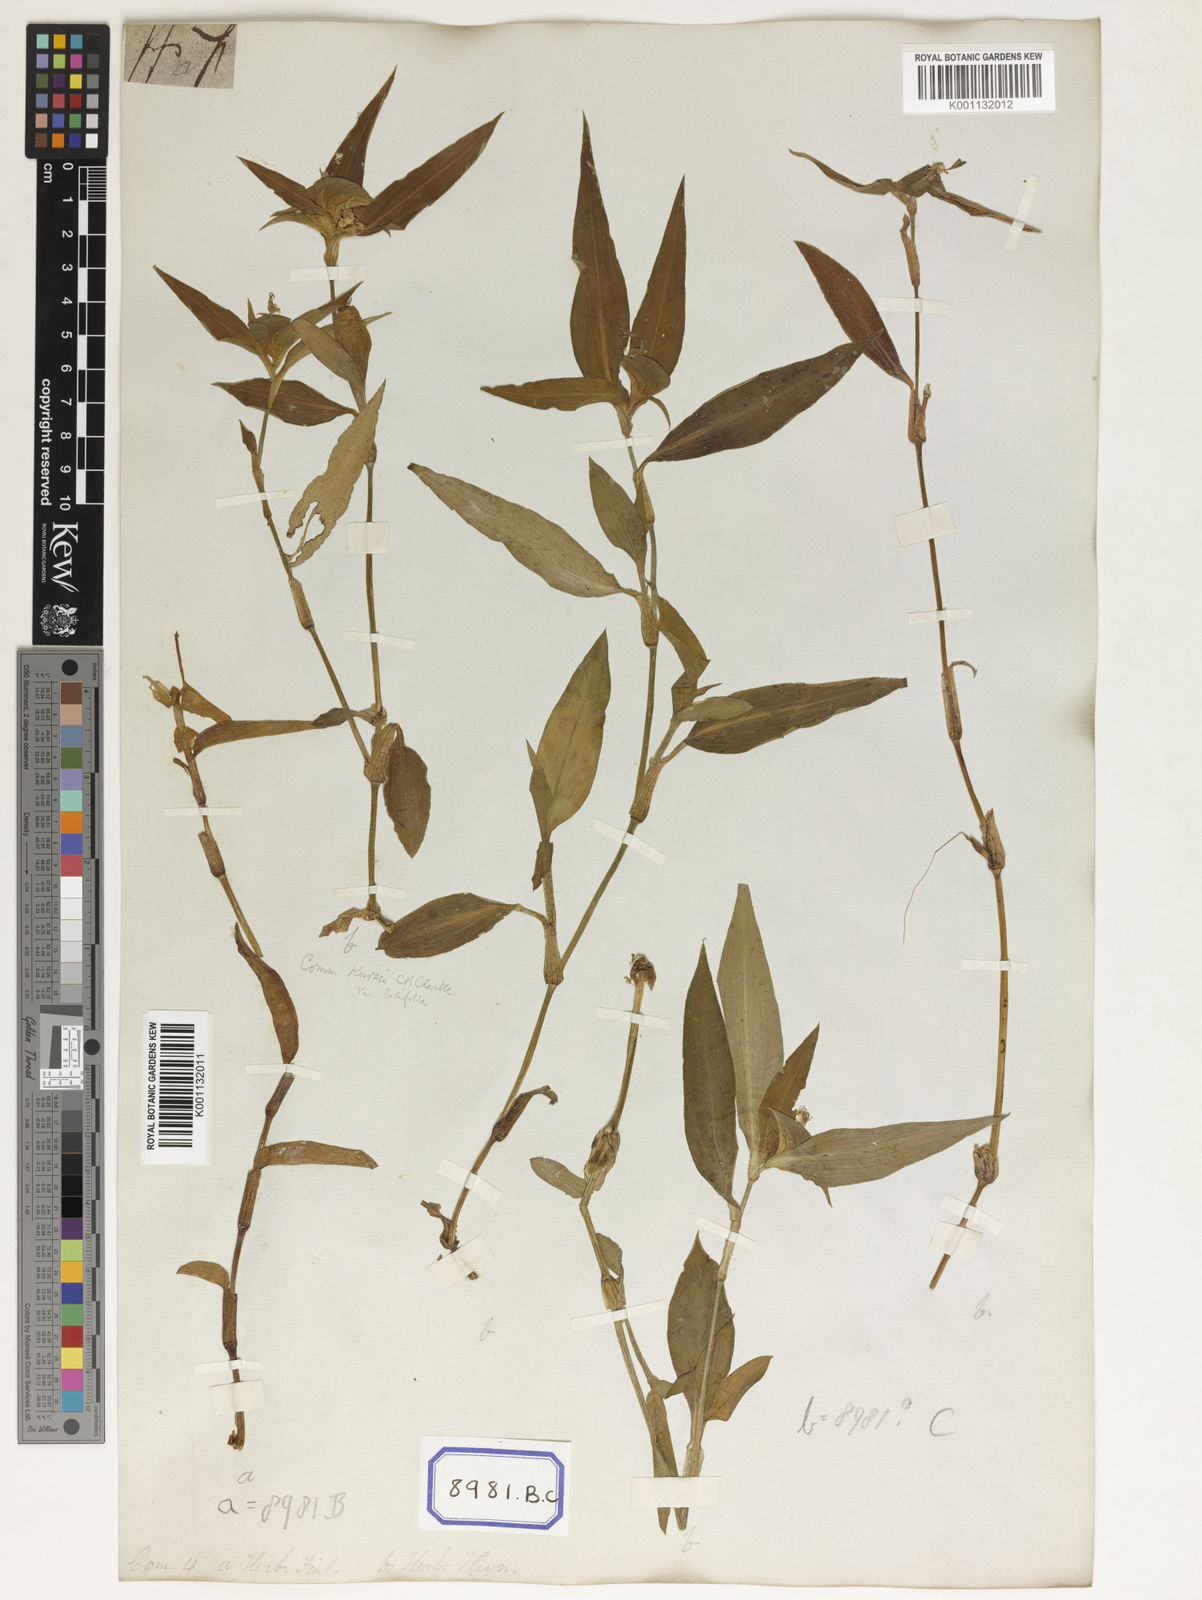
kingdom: Plantae
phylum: Tracheophyta
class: Liliopsida
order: Commelinales
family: Commelinaceae
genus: Commelina
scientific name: Commelina undulata
